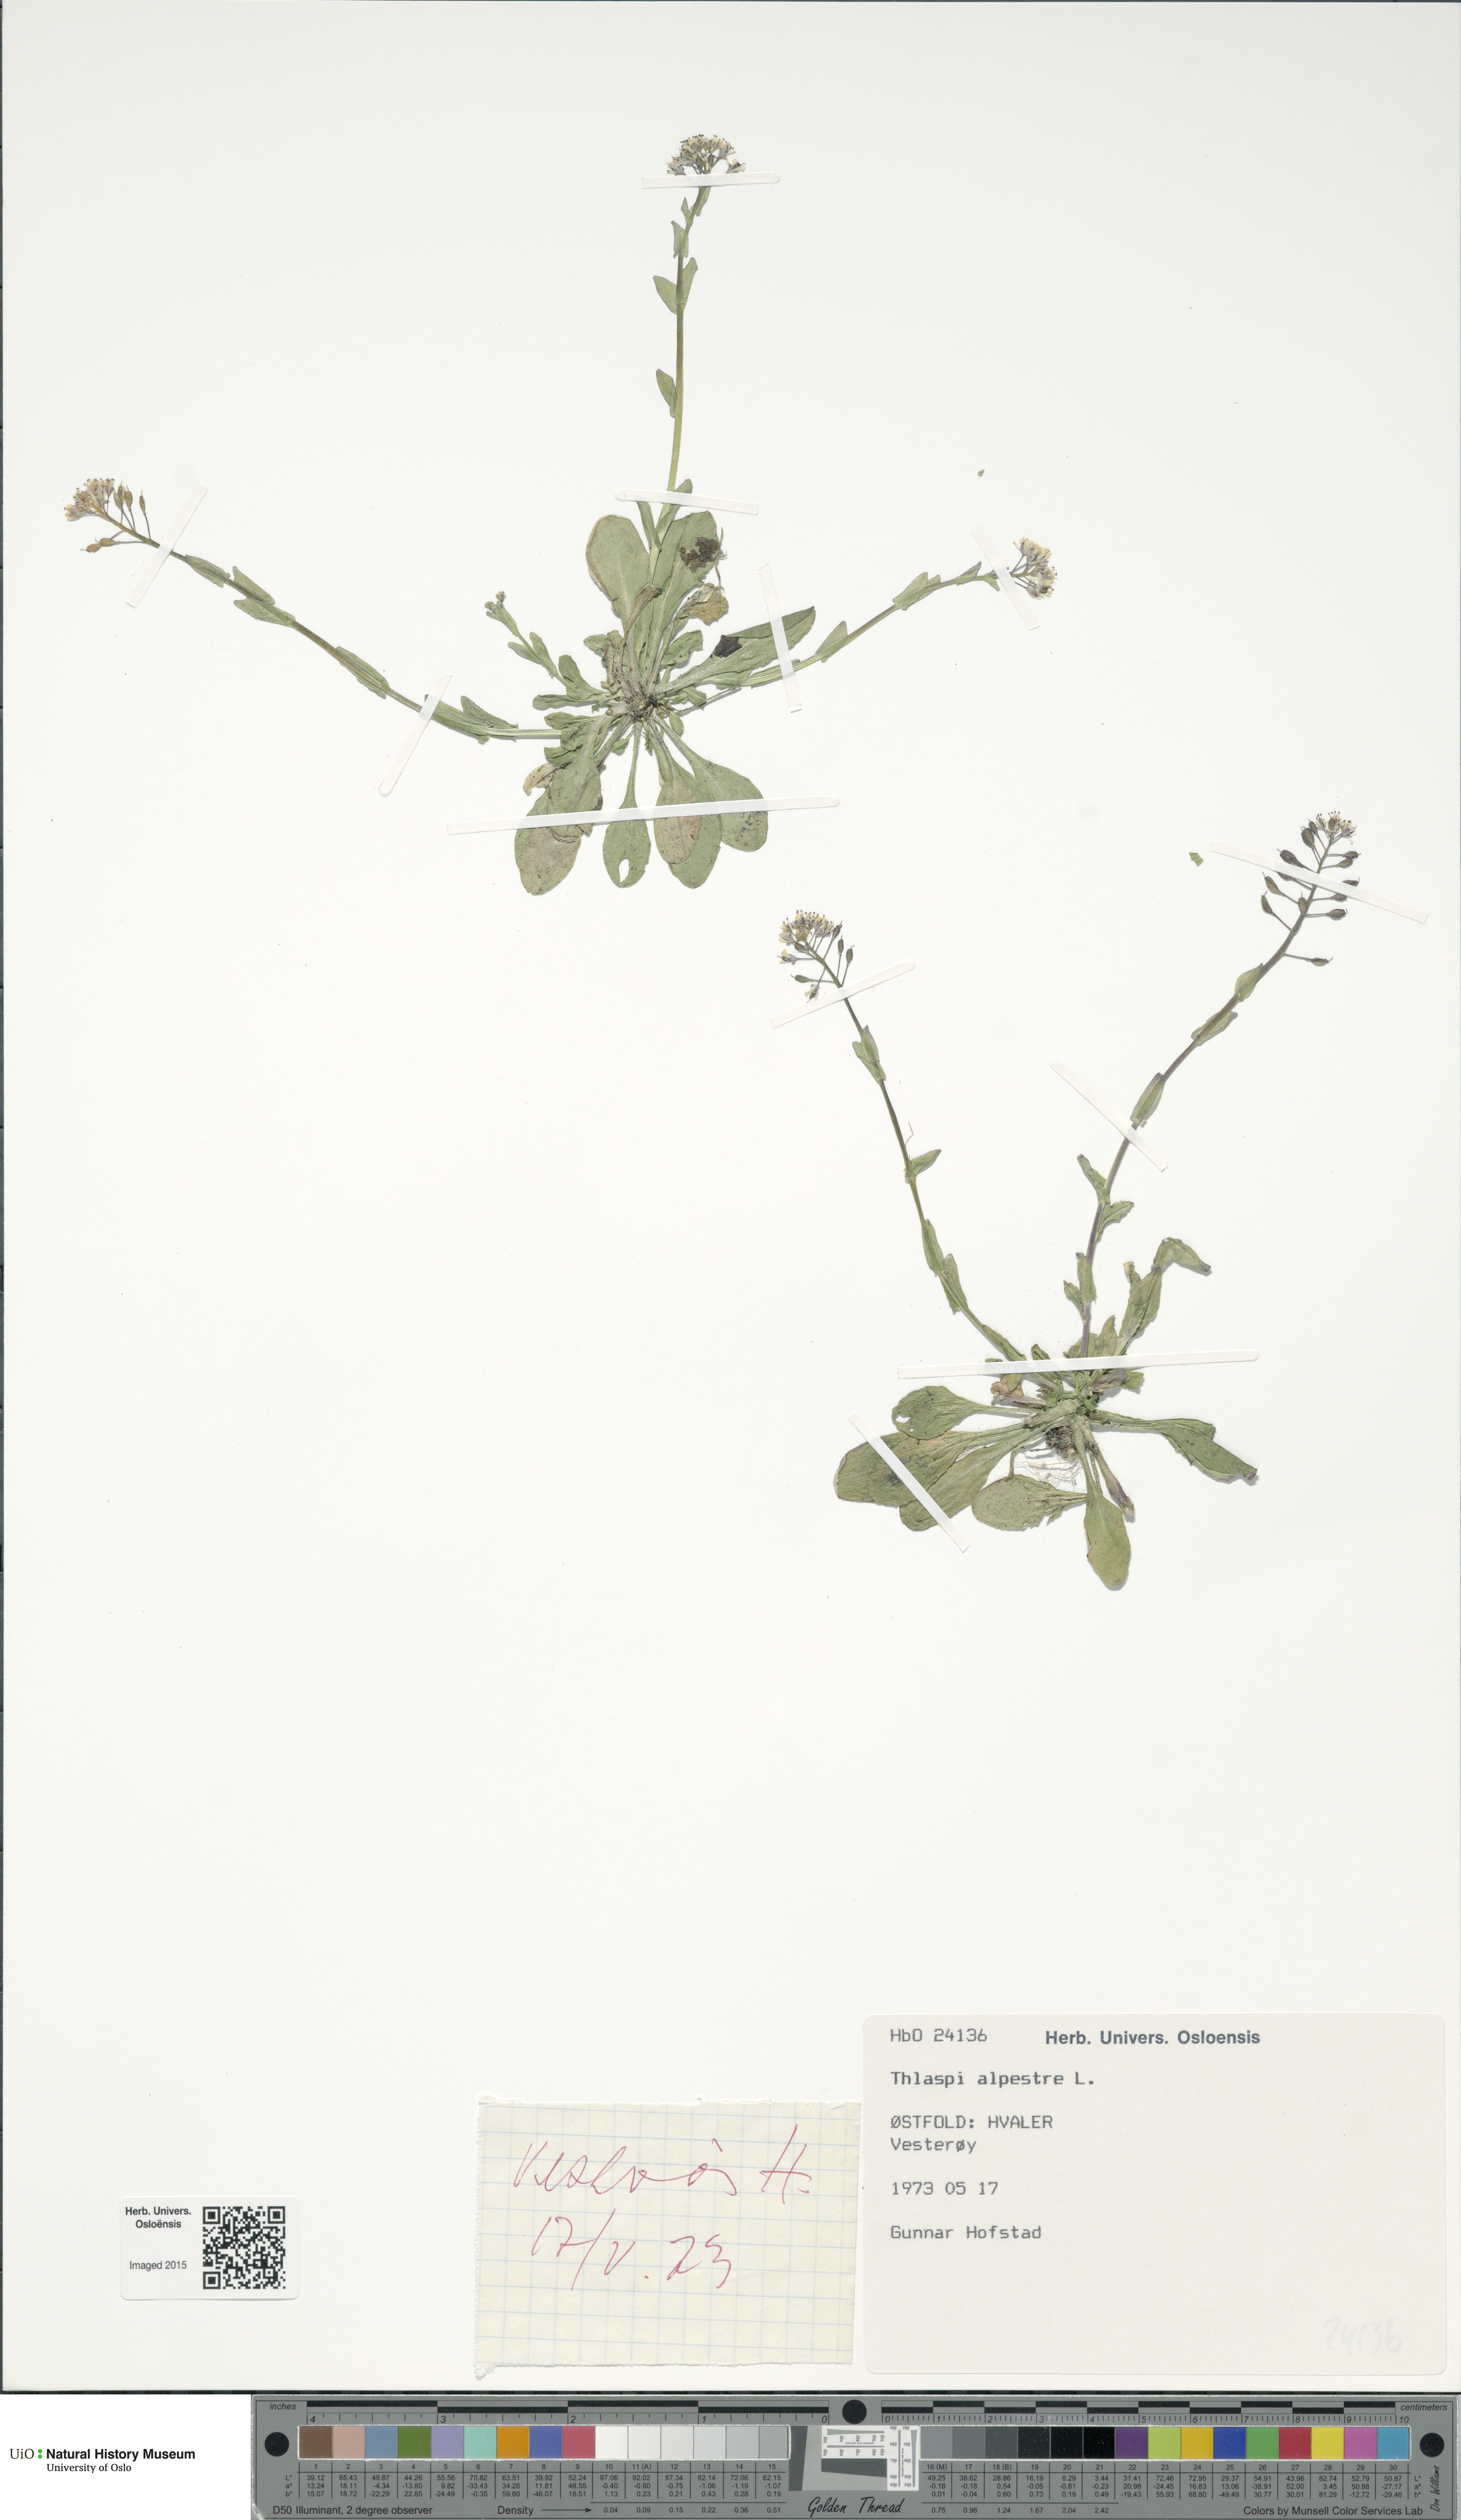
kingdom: Plantae
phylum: Tracheophyta
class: Magnoliopsida
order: Brassicales
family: Brassicaceae
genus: Noccaea
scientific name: Noccaea caerulescens
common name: Alpine pennycress
